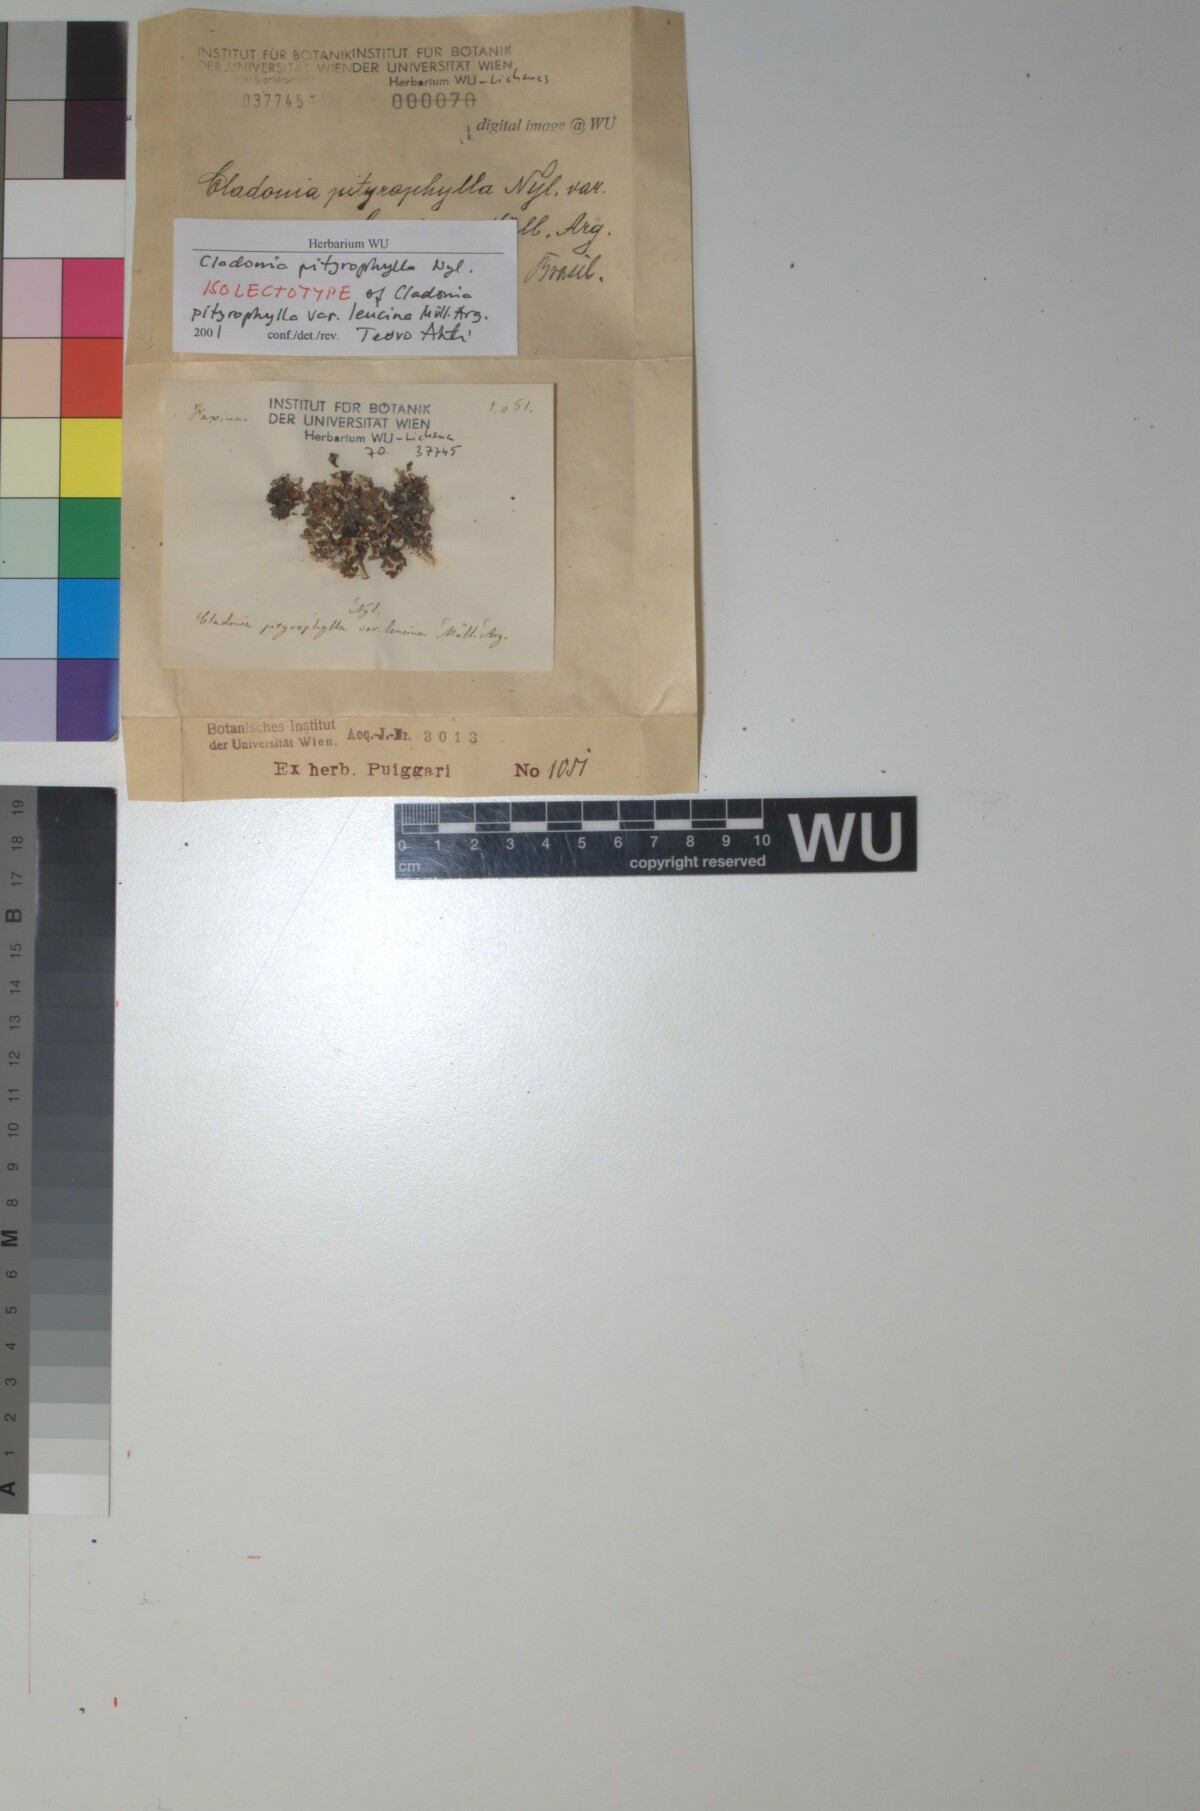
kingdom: Fungi
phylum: Ascomycota
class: Lecanoromycetes
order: Lecanorales
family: Cladoniaceae
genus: Cladonia
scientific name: Cladonia pityrophylla
